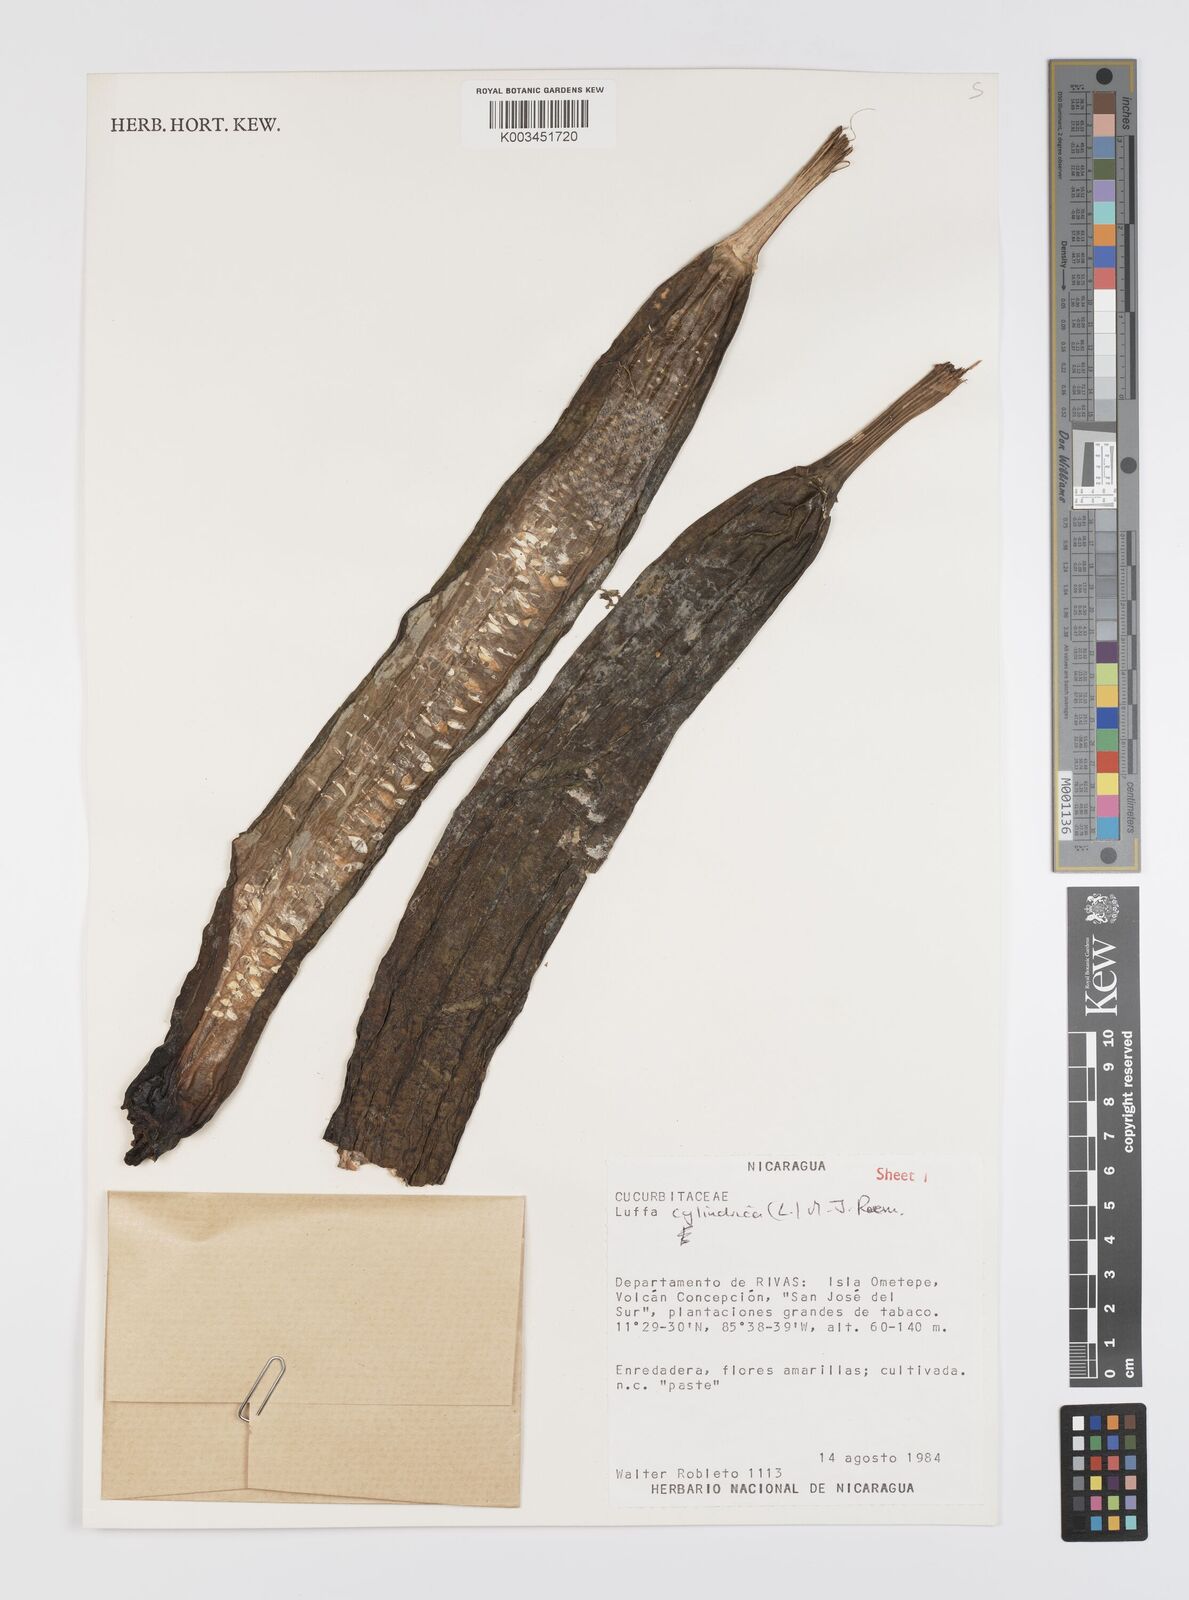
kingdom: Plantae
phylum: Tracheophyta
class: Magnoliopsida
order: Cucurbitales
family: Cucurbitaceae
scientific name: Cucurbitaceae
